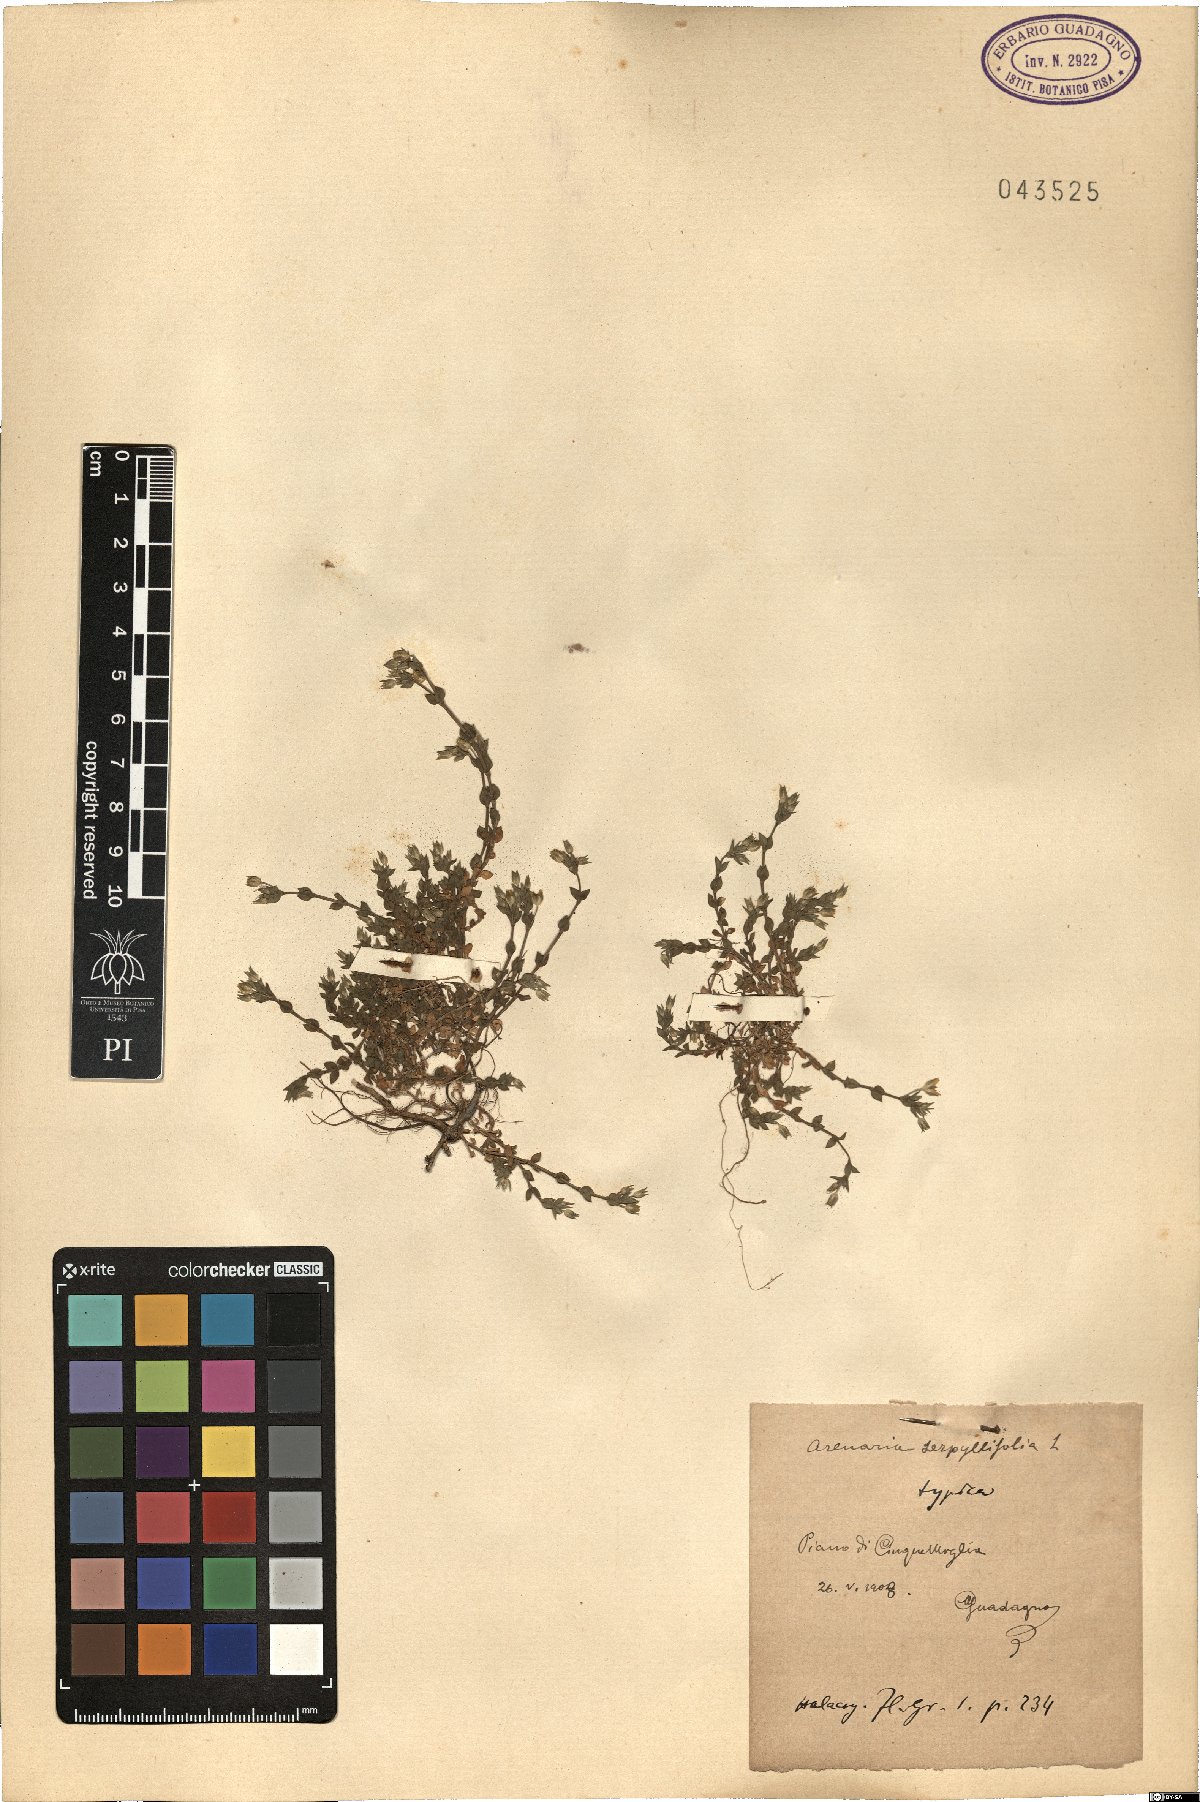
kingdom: Plantae
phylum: Tracheophyta
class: Magnoliopsida
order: Caryophyllales
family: Caryophyllaceae
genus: Arenaria
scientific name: Arenaria serpyllifolia
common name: Thyme-leaved sandwort
